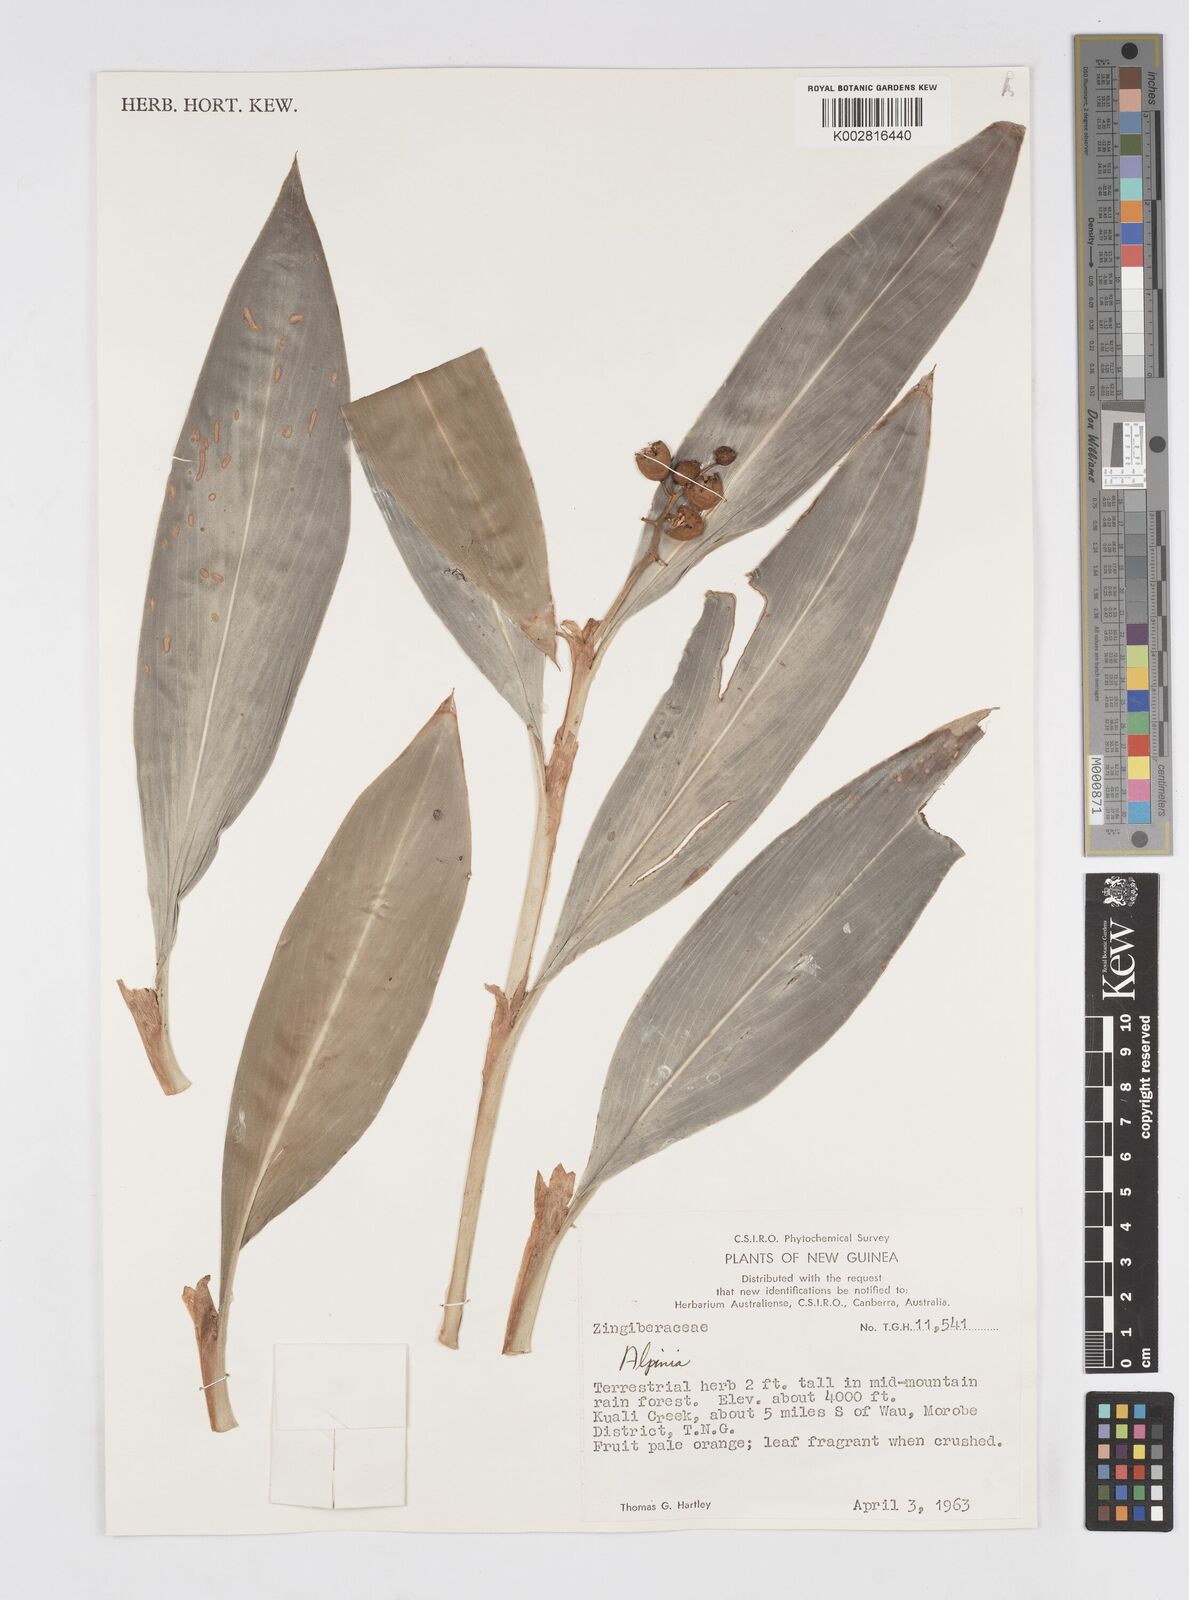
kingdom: Plantae
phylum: Tracheophyta
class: Liliopsida
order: Zingiberales
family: Zingiberaceae
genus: Alpinia
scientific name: Alpinia
